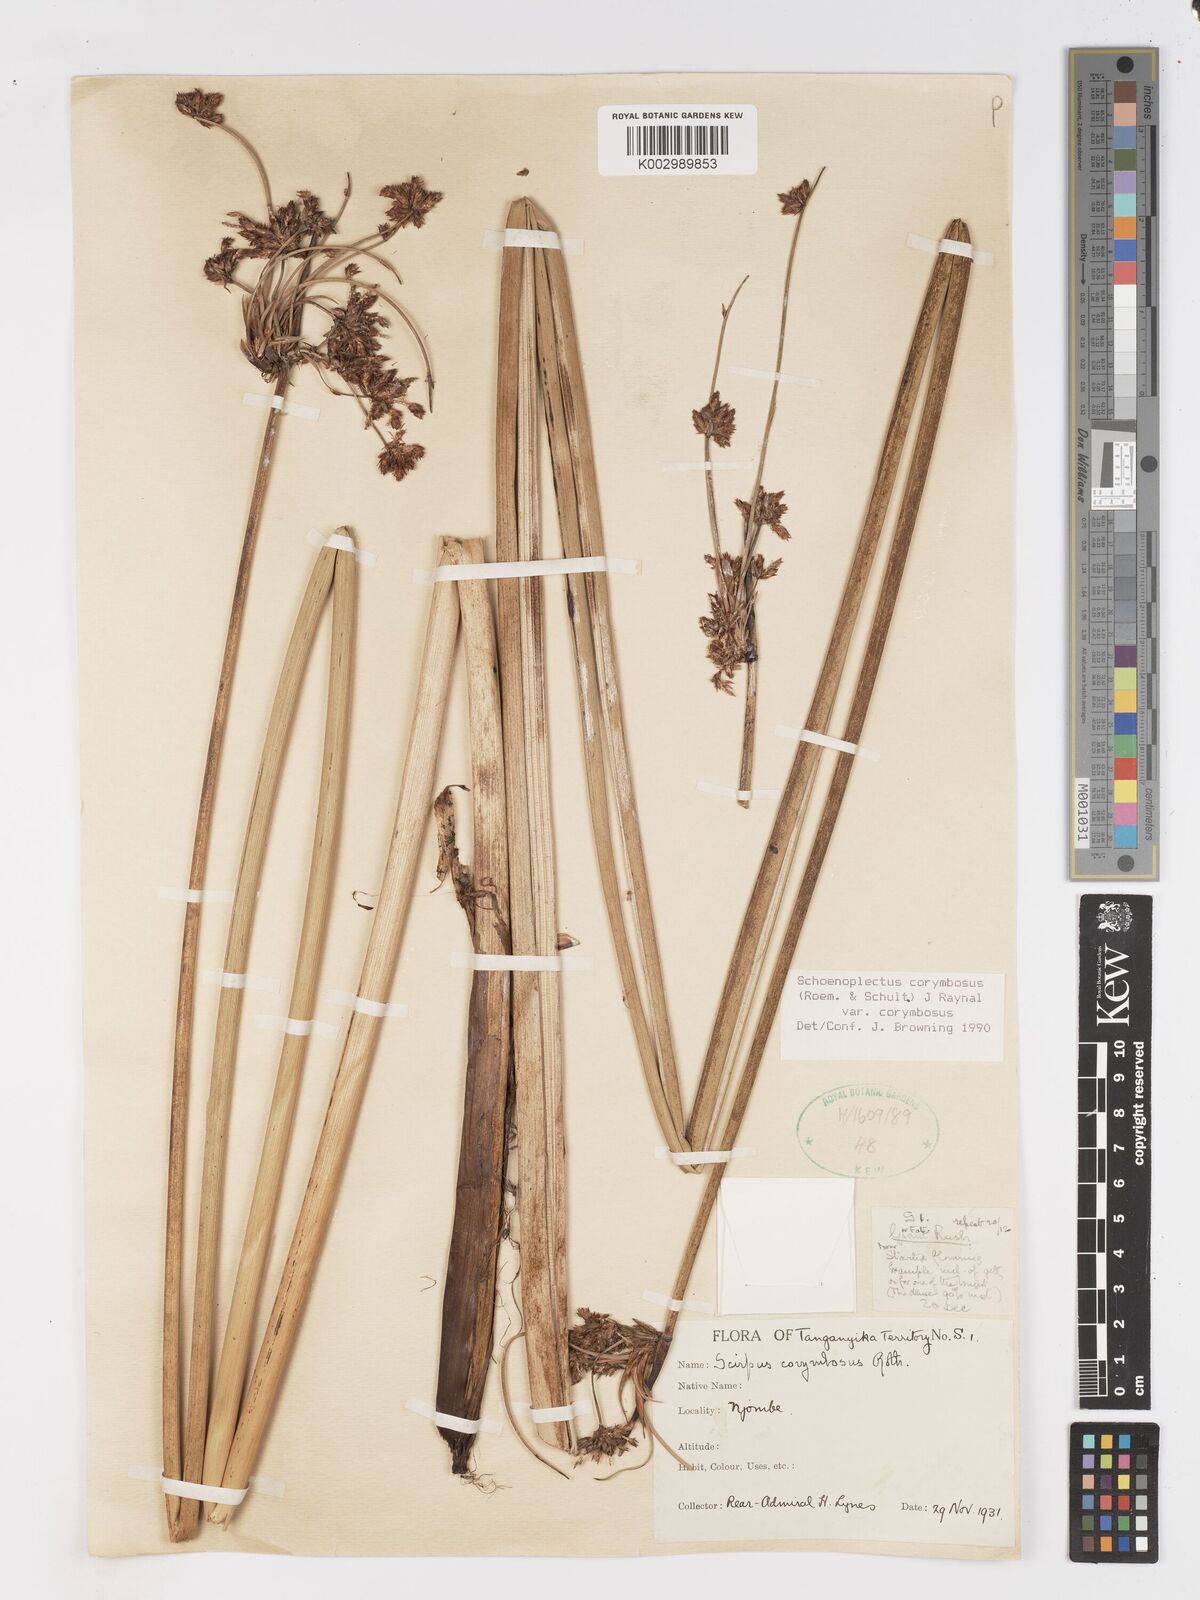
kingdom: Plantae
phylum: Tracheophyta
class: Liliopsida
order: Poales
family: Cyperaceae
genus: Schoenoplectiella
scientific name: Schoenoplectiella corymbosa
